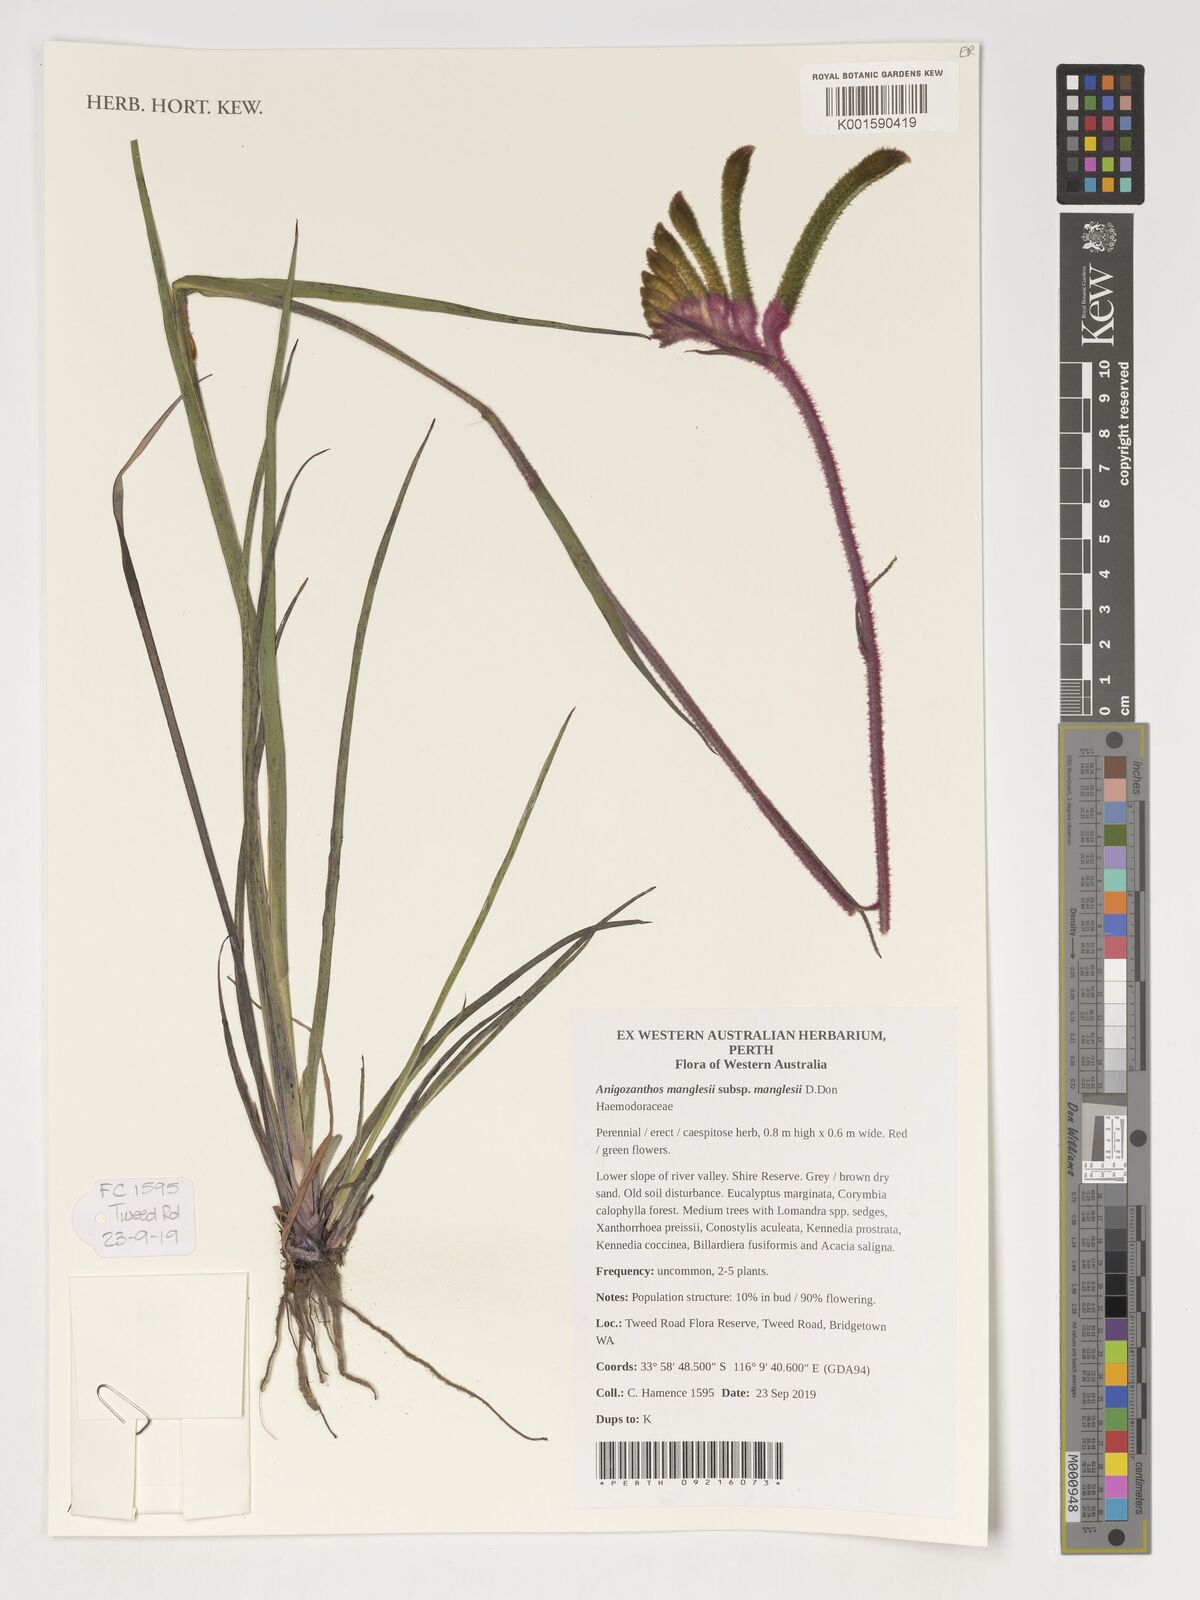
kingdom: Plantae
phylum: Tracheophyta
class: Liliopsida
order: Commelinales
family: Haemodoraceae
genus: Anigozanthos
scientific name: Anigozanthos manglesii
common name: Mangles's kangaroo-paw
